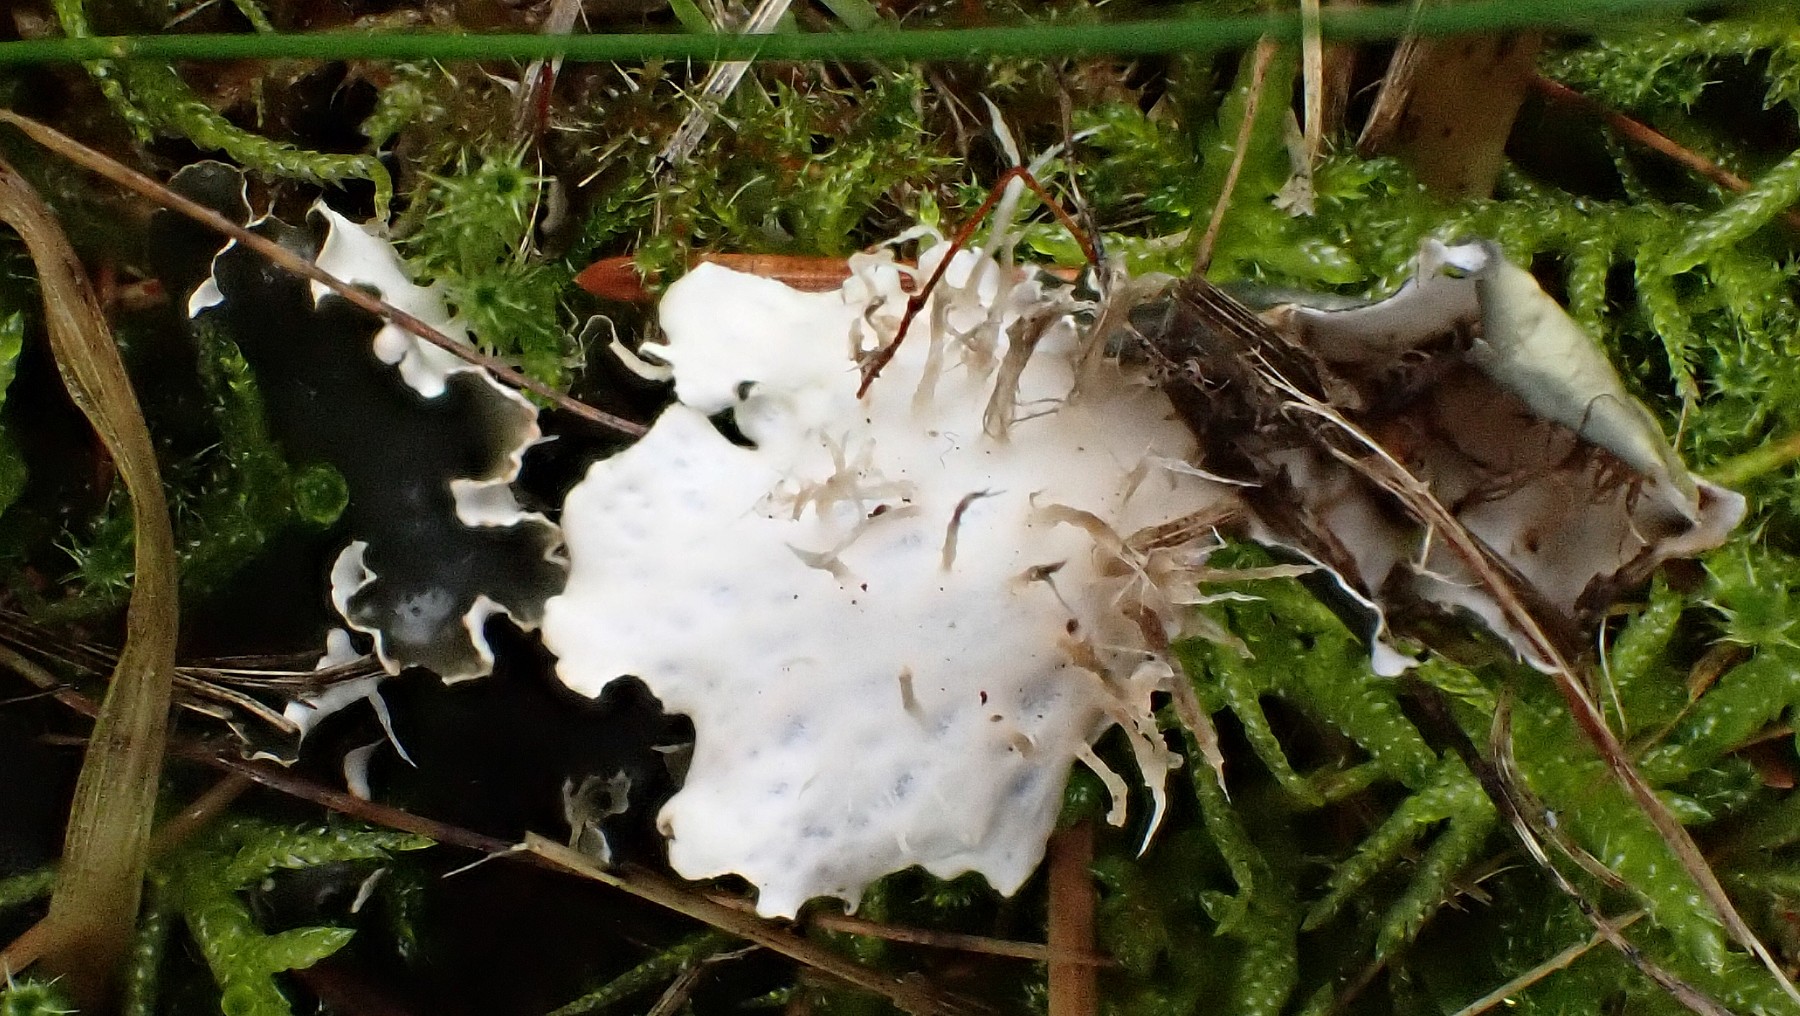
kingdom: Fungi
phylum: Ascomycota
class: Lecanoromycetes
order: Peltigerales
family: Peltigeraceae
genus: Peltigera
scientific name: Peltigera hymenina
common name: hinde-skjoldlav
